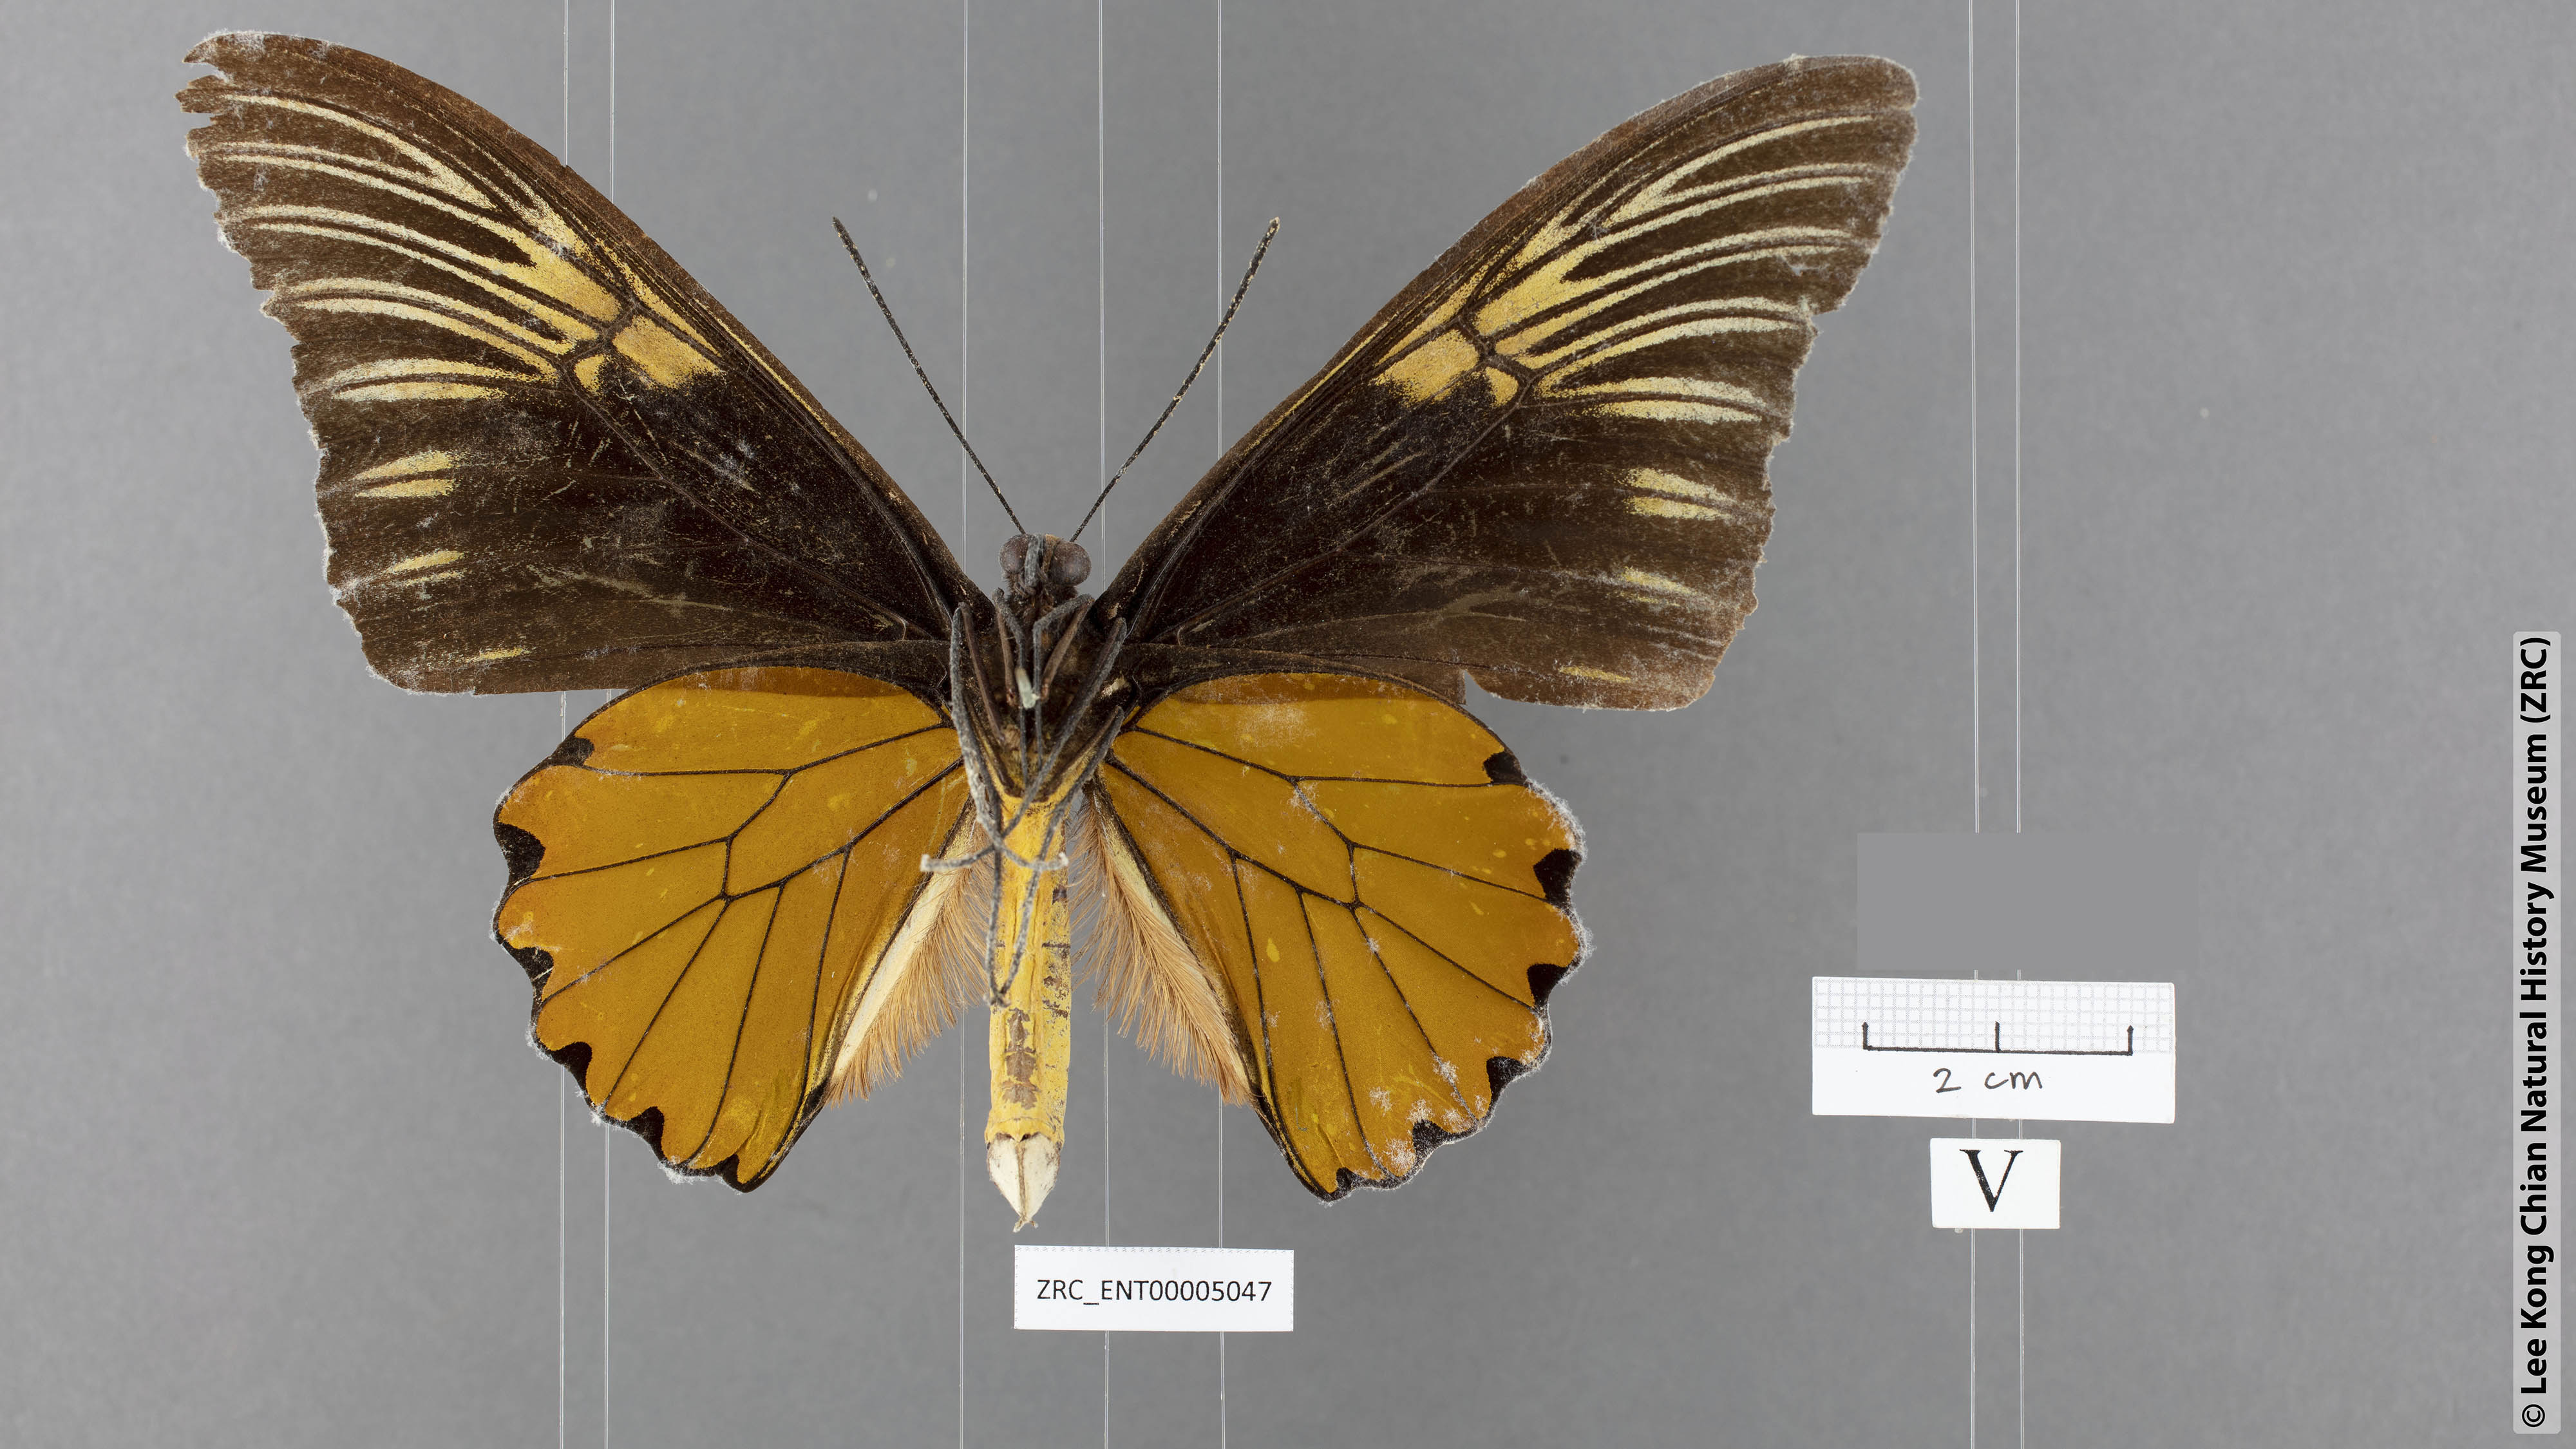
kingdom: Animalia
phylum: Arthropoda
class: Insecta
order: Lepidoptera
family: Papilionidae
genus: Troides
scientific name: Troides amphyrus
